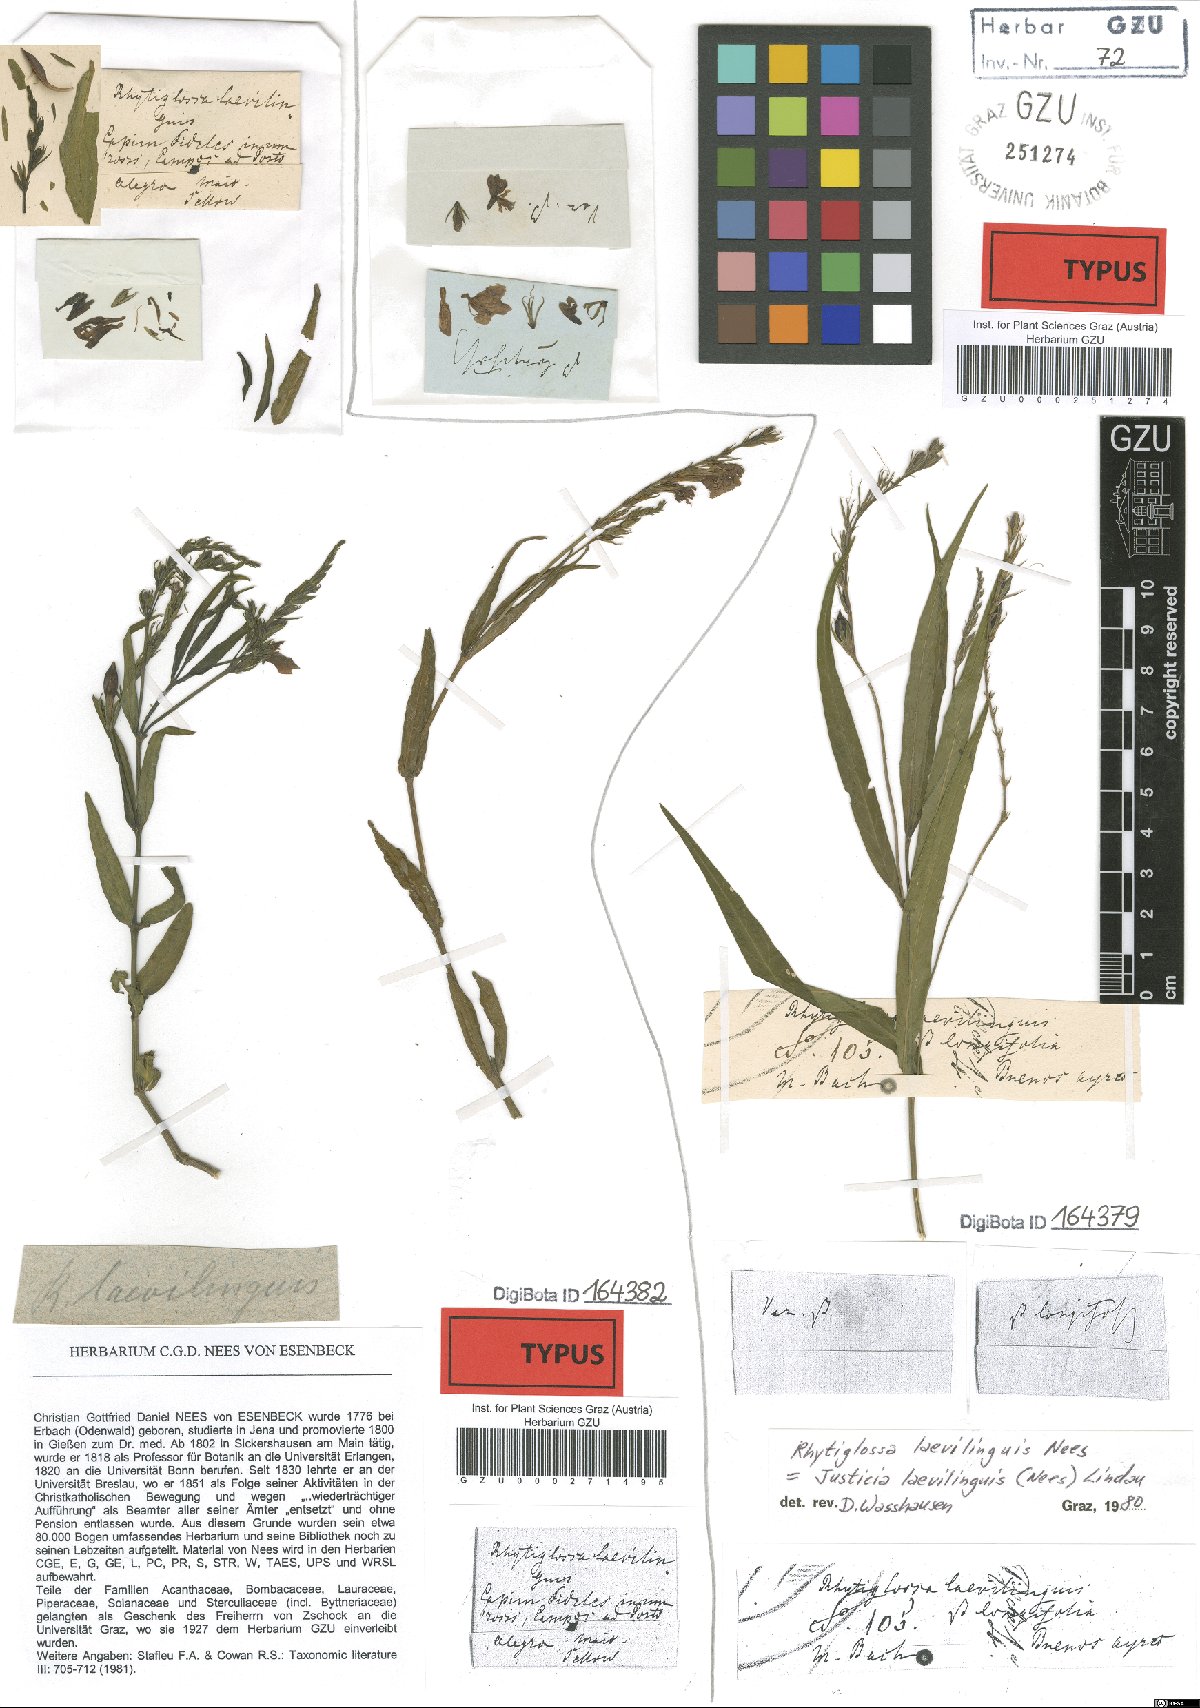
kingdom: Plantae
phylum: Tracheophyta
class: Magnoliopsida
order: Lamiales
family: Acanthaceae
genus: Dianthera
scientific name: Dianthera laevilinguis
